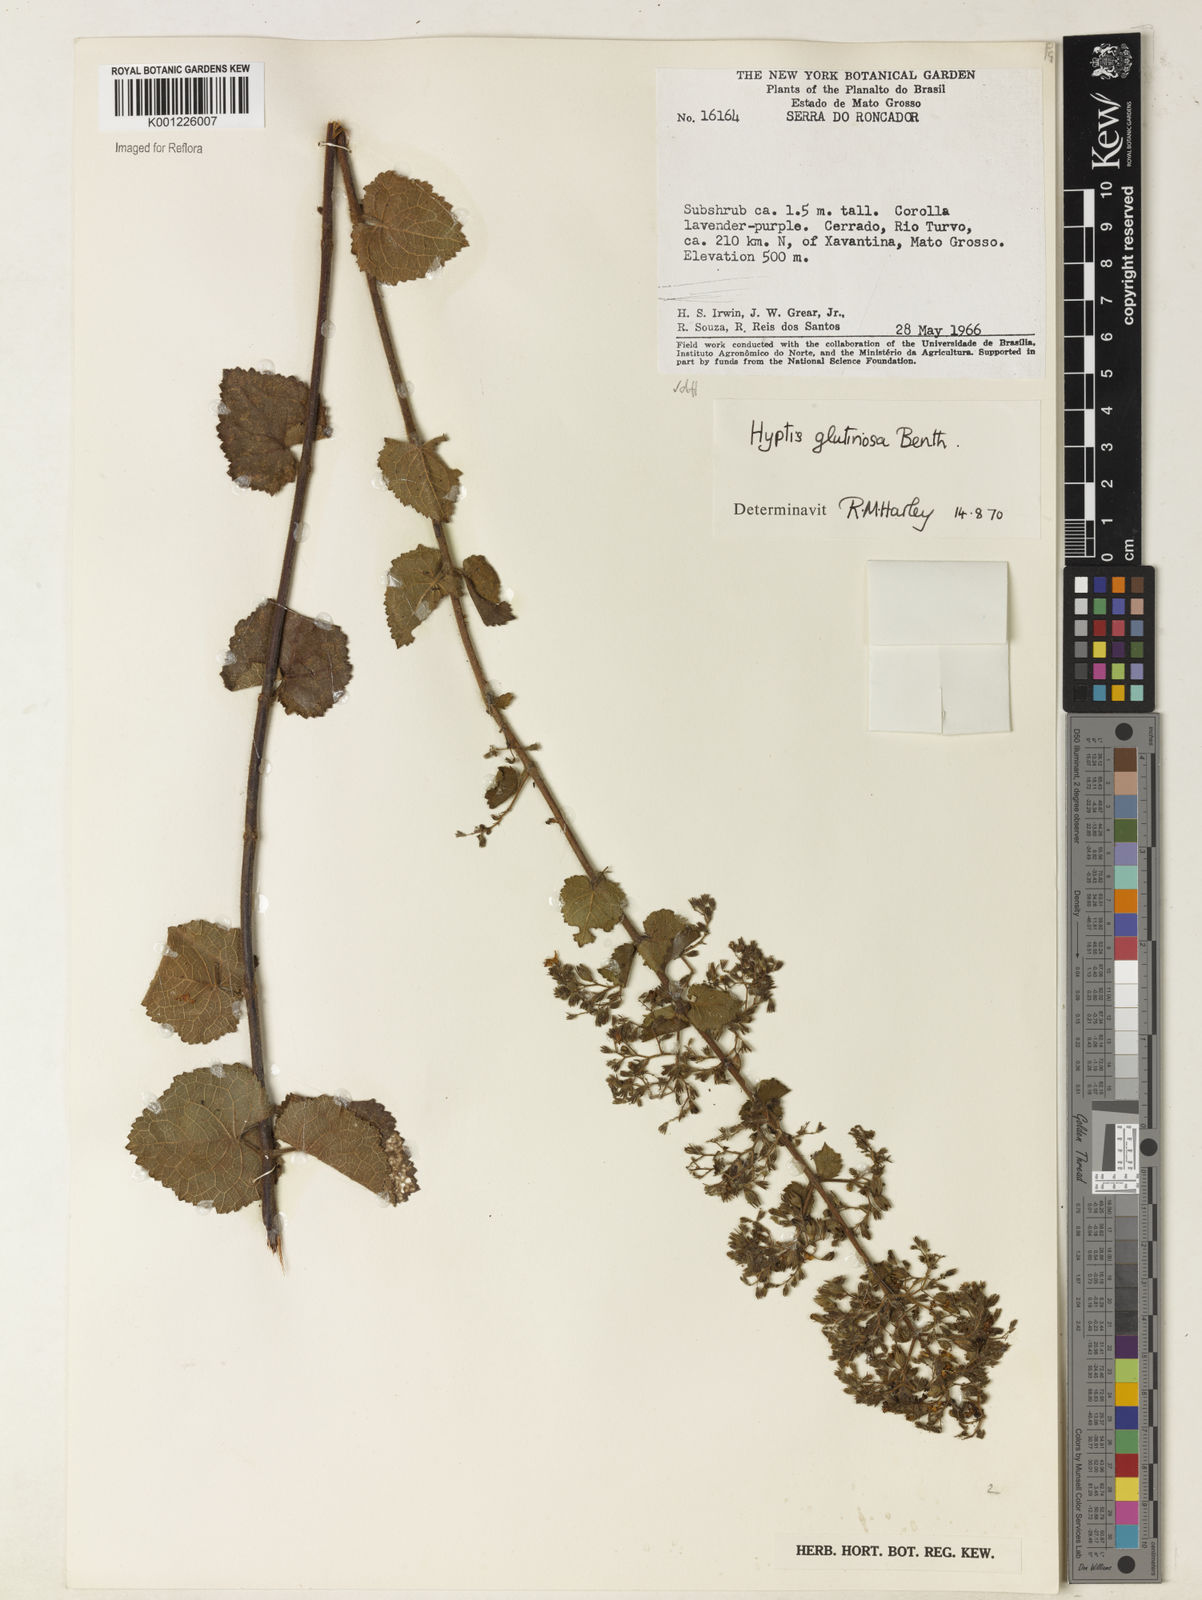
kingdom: Plantae
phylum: Tracheophyta
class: Magnoliopsida
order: Lamiales
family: Lamiaceae
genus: Hyptidendron
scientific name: Hyptidendron glutinosum
